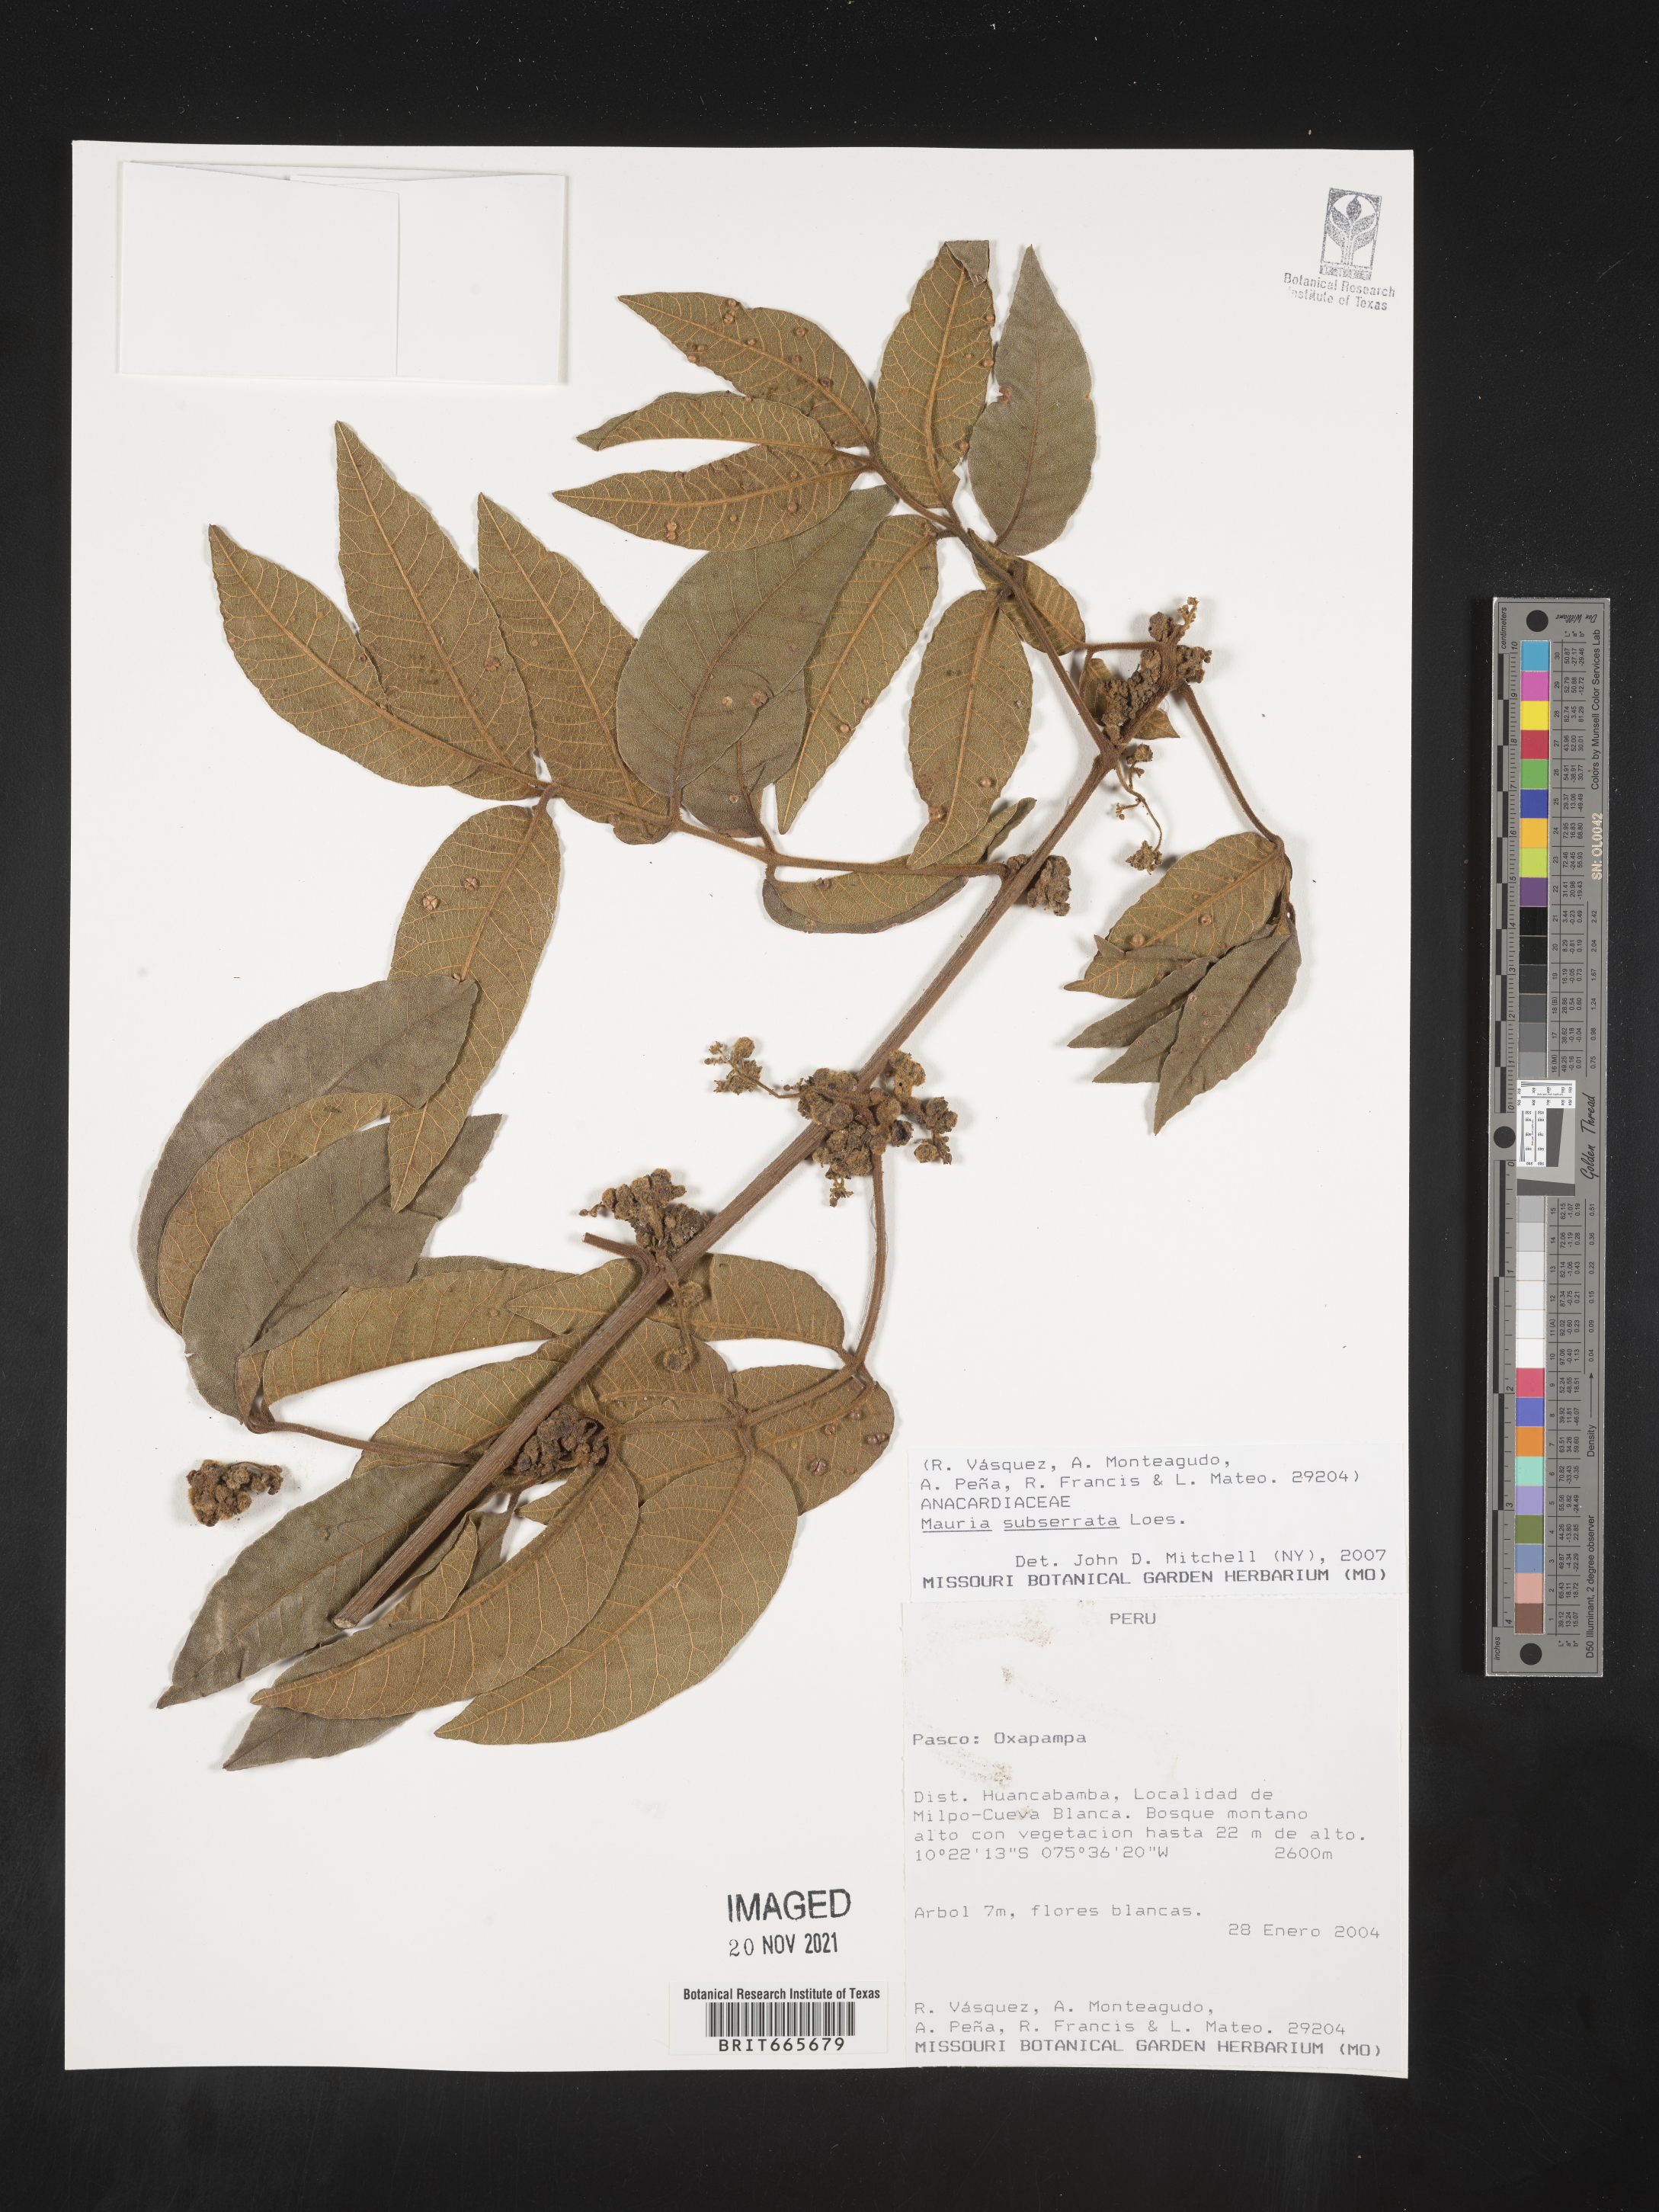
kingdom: Plantae
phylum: Tracheophyta
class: Magnoliopsida
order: Sapindales
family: Anacardiaceae
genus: Mauria
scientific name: Mauria
